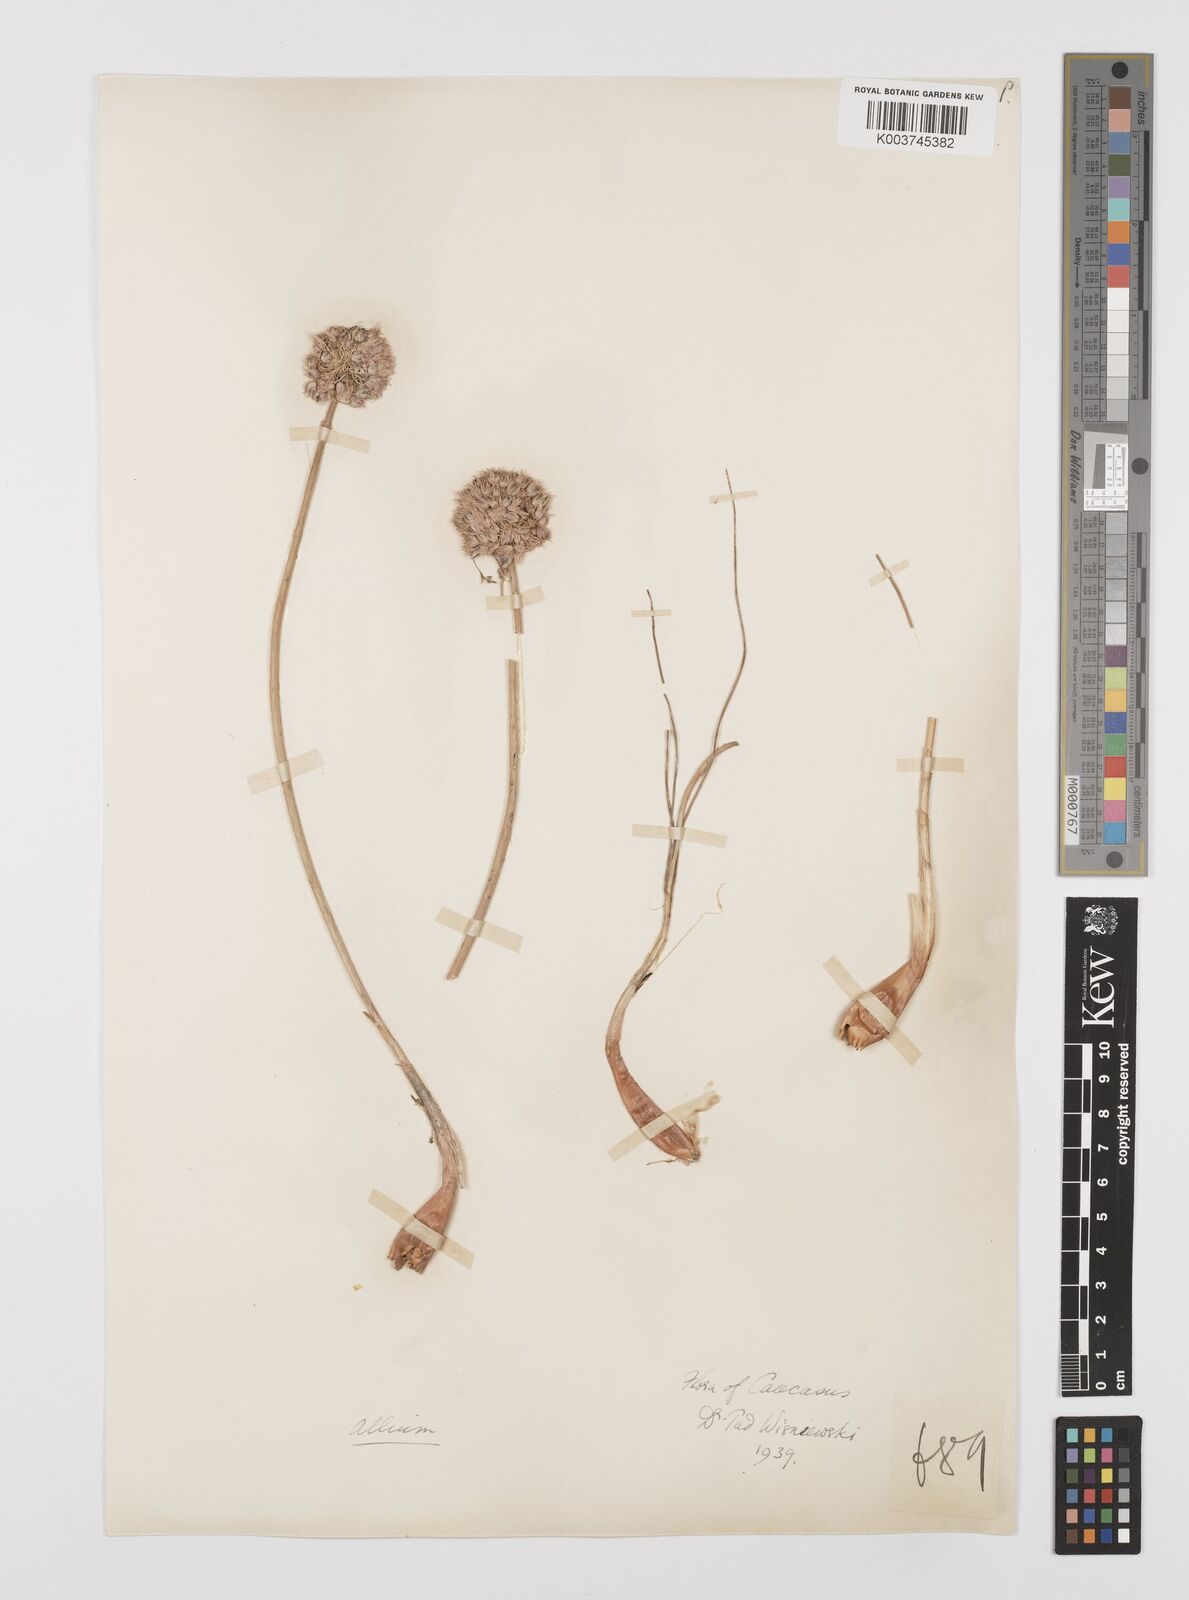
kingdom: Plantae
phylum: Tracheophyta
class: Liliopsida
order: Asparagales
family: Amaryllidaceae
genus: Allium
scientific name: Allium
